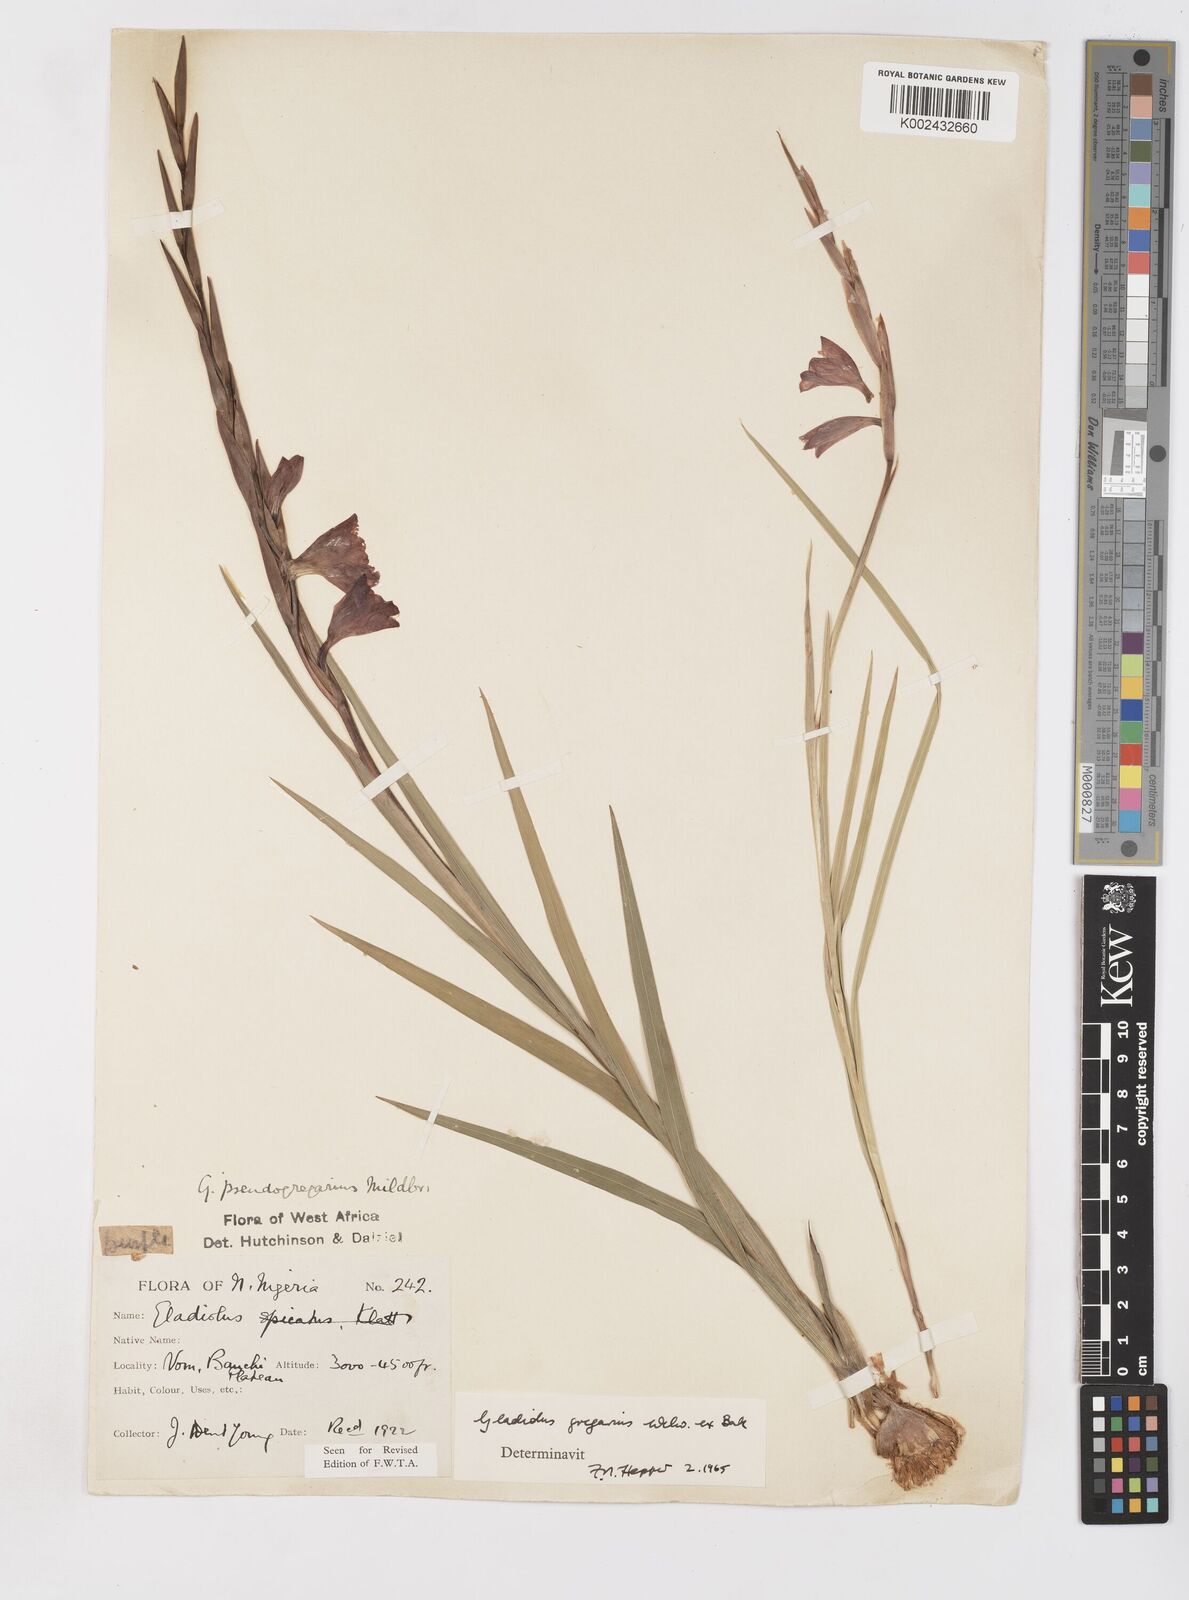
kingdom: Plantae
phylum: Tracheophyta
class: Liliopsida
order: Asparagales
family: Iridaceae
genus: Gladiolus
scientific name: Gladiolus gregarius
